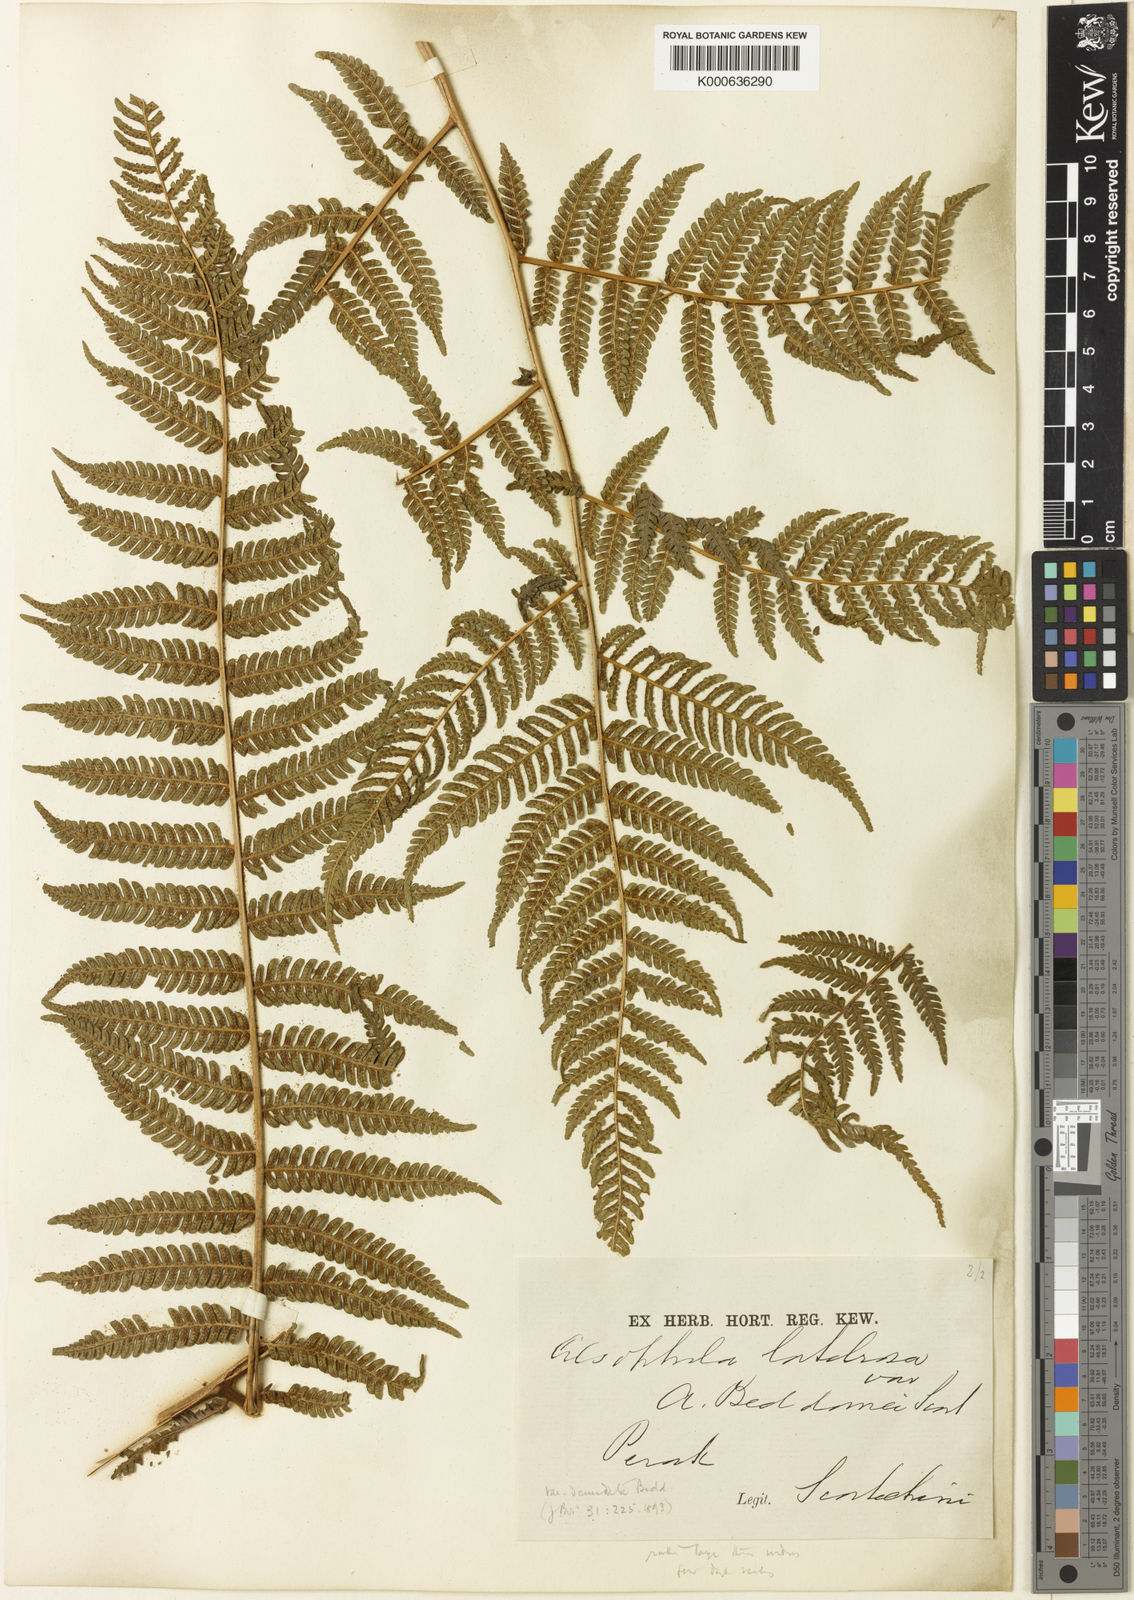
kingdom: Plantae
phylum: Tracheophyta
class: Polypodiopsida
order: Cyatheales
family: Cyatheaceae
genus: Alsophila
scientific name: Alsophila borneensis
